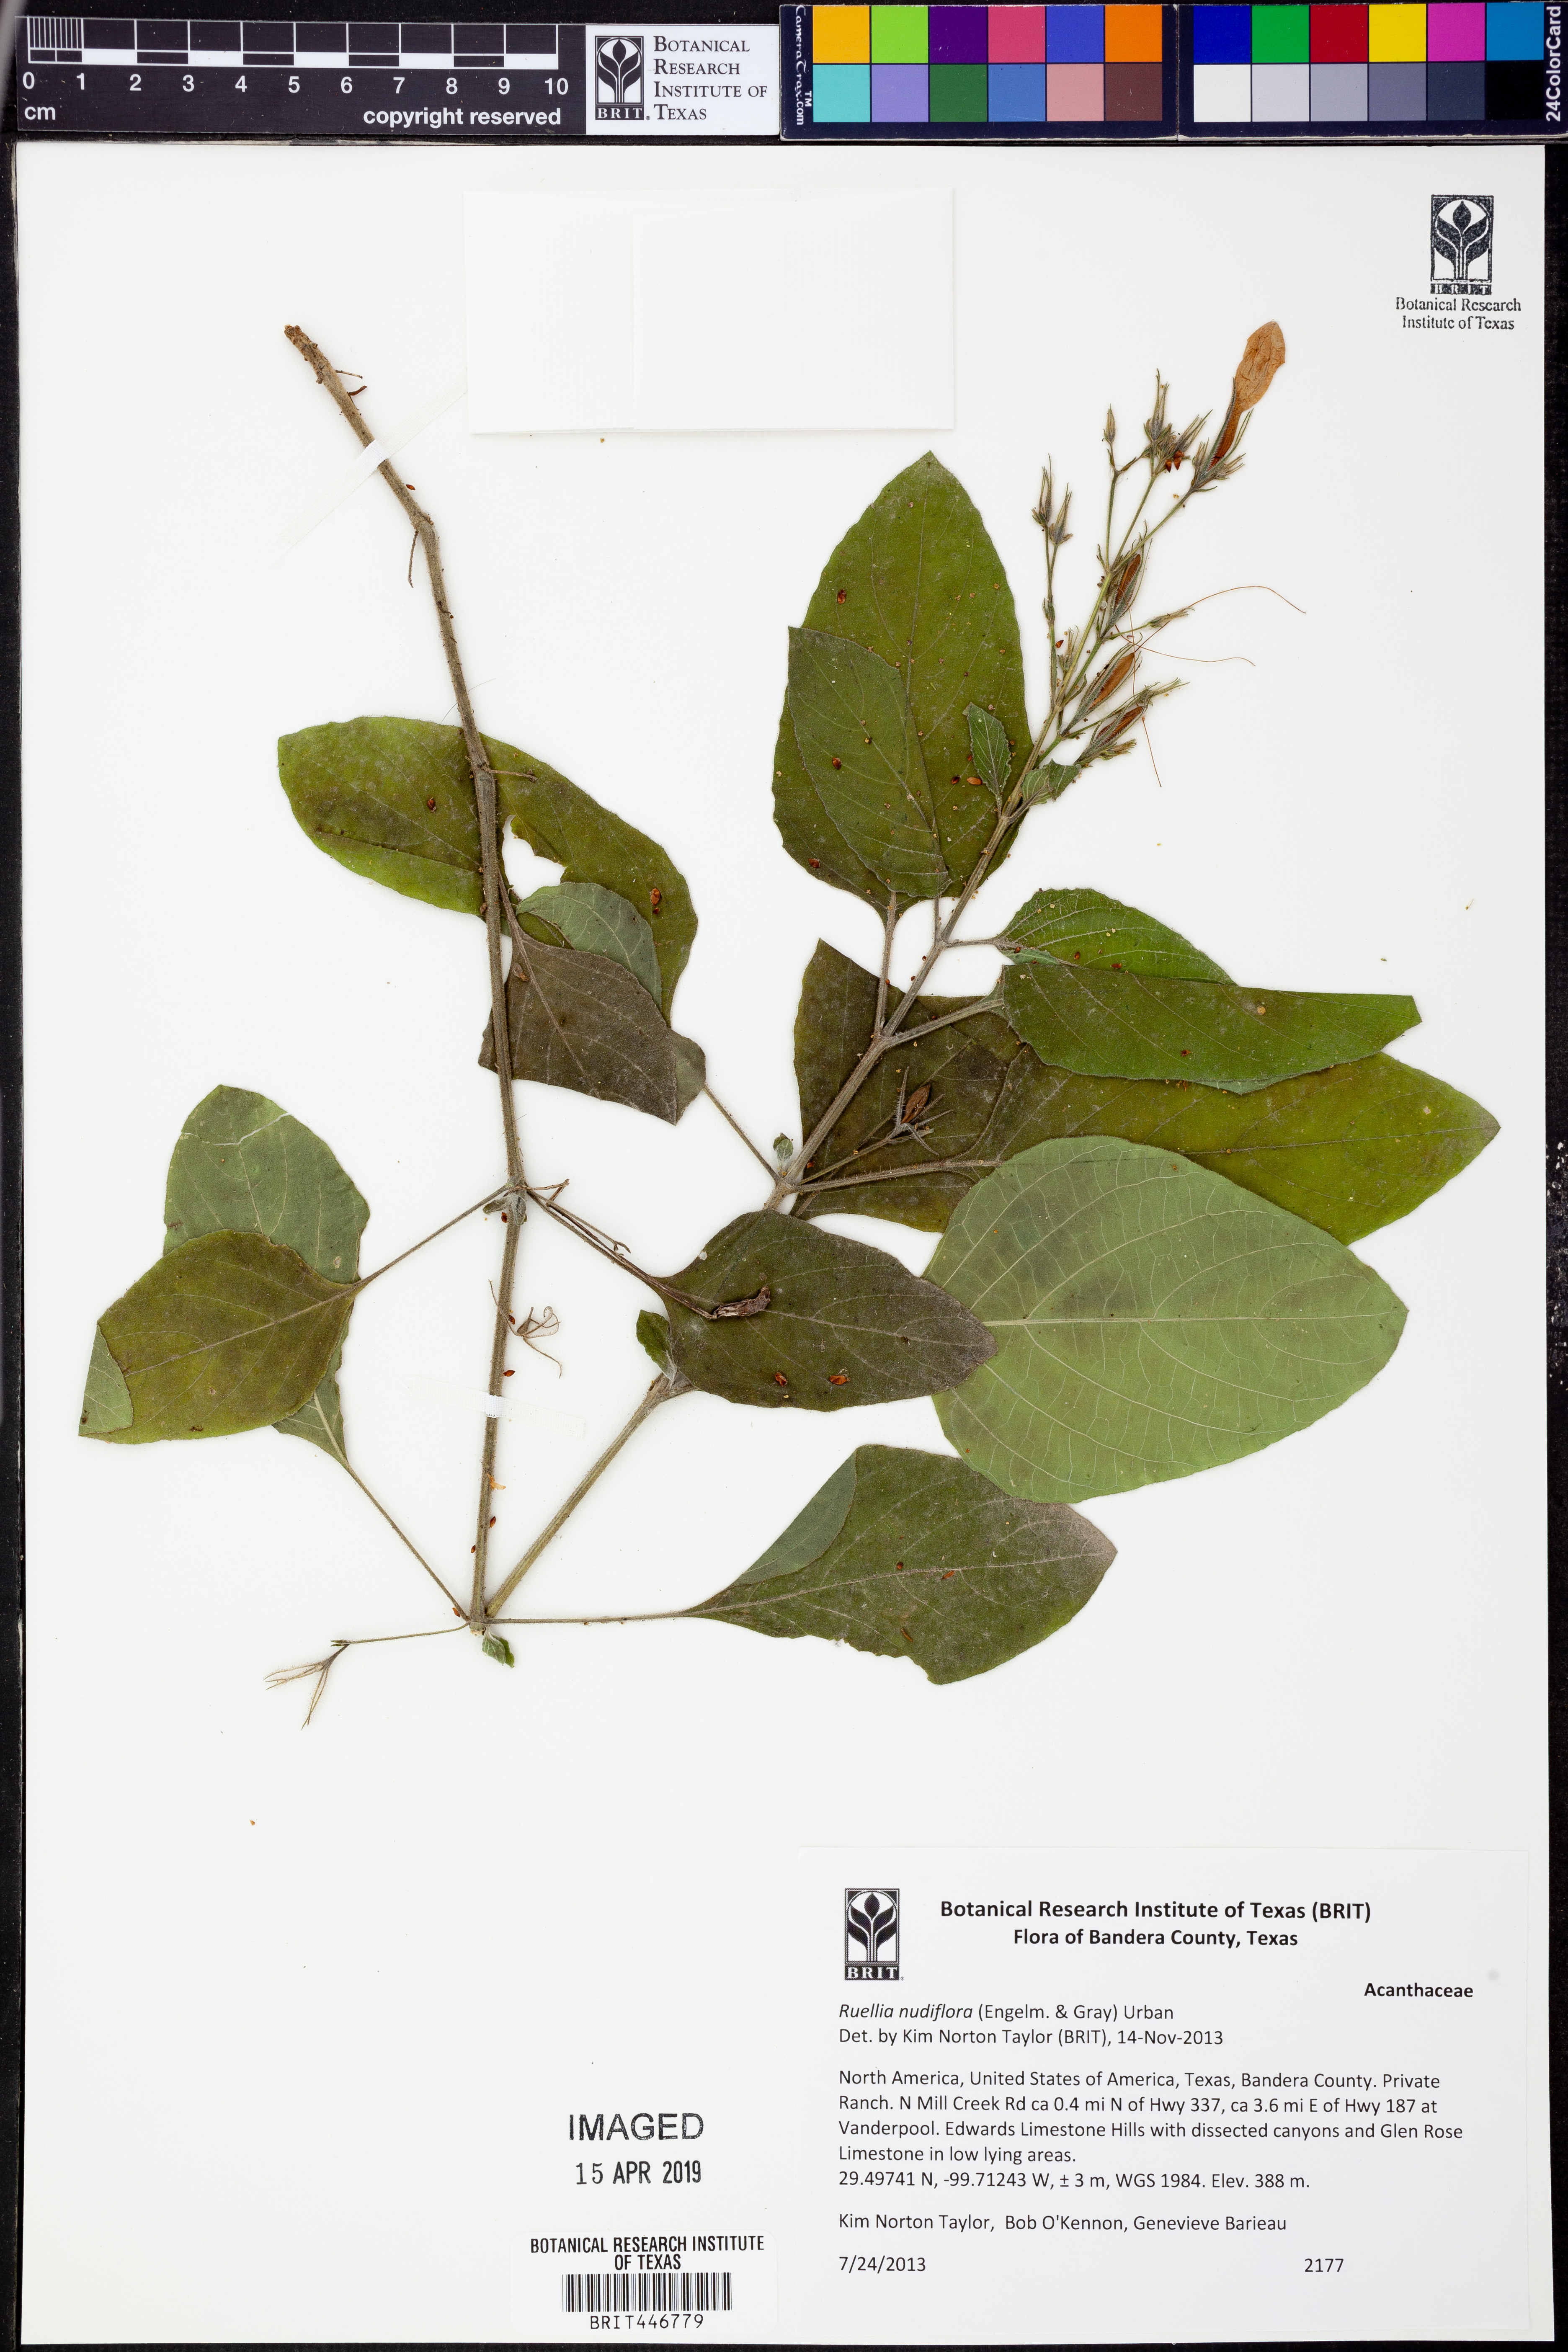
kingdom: Plantae
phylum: Tracheophyta
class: Magnoliopsida
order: Lamiales
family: Acanthaceae
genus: Ruellia
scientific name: Ruellia ciliatiflora
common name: Hairyflower wild petunia
